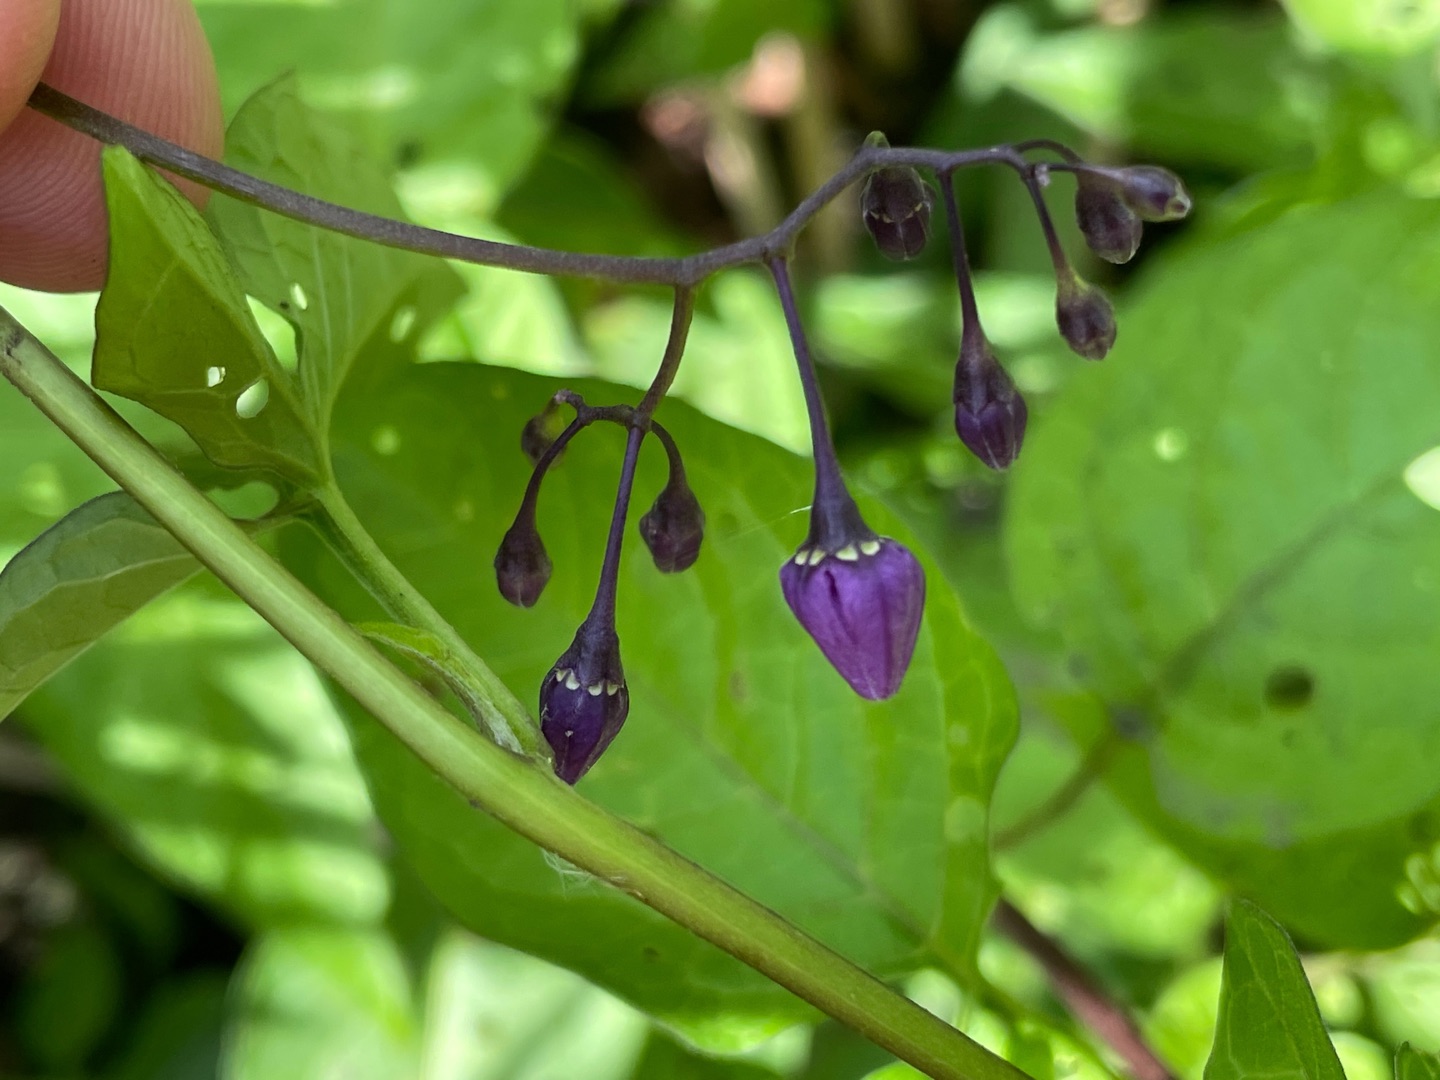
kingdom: Plantae
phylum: Tracheophyta
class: Magnoliopsida
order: Solanales
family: Solanaceae
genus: Solanum
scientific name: Solanum dulcamara
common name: Bittersød natskygge
